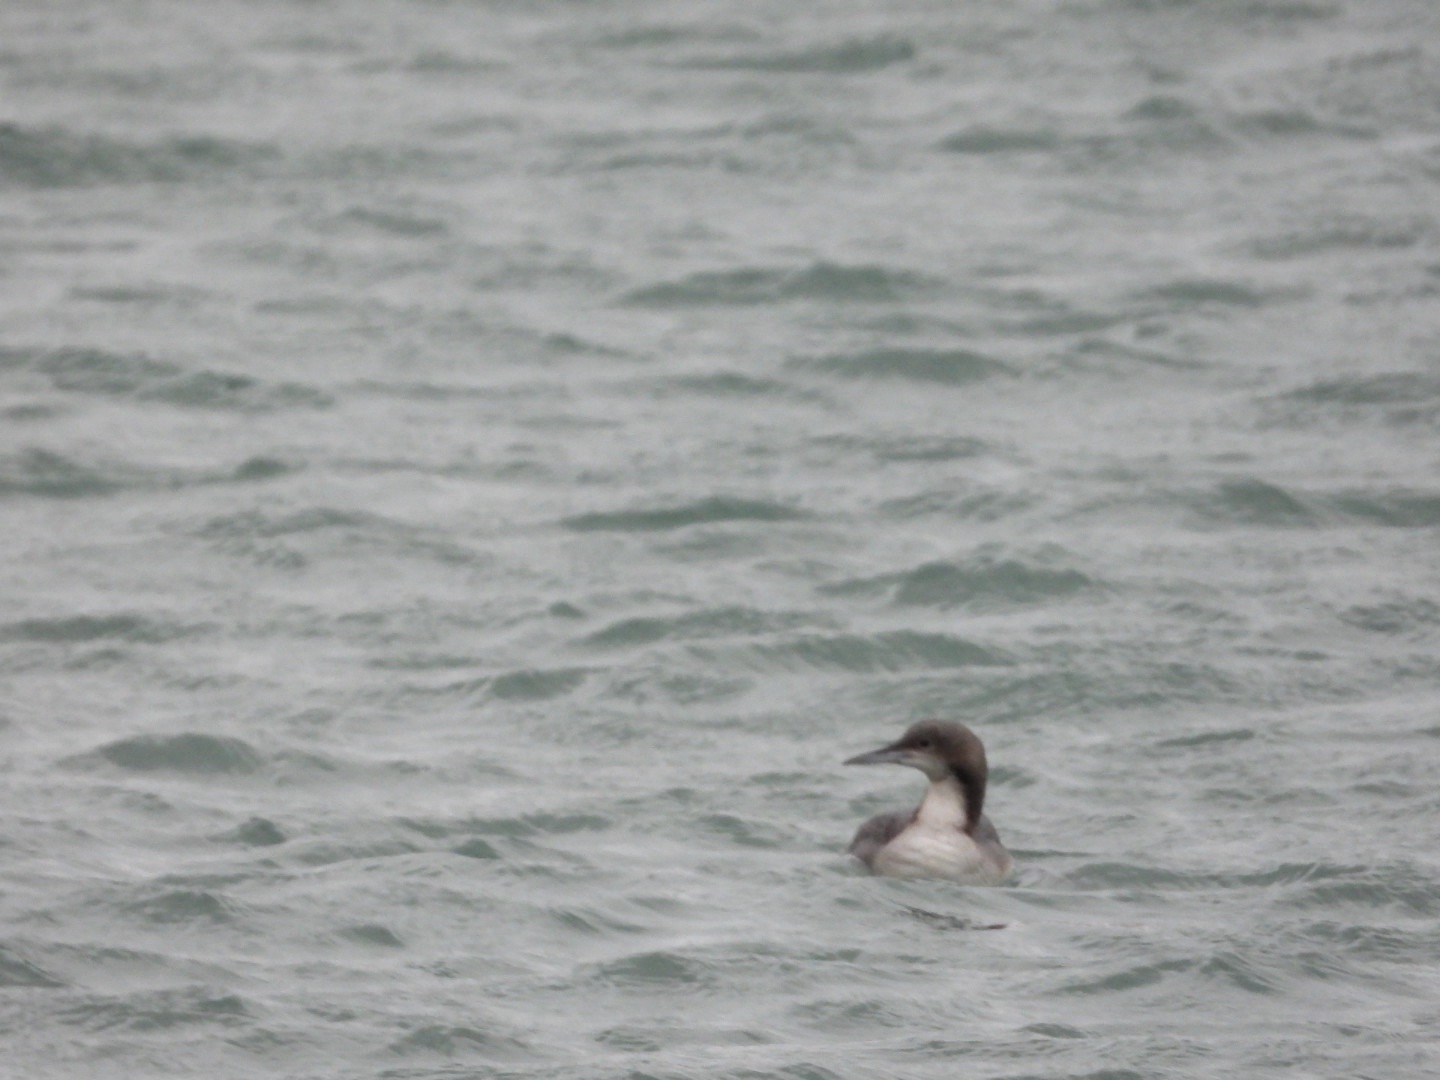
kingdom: Animalia
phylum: Chordata
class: Aves
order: Gaviiformes
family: Gaviidae
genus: Gavia
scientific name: Gavia pacifica
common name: Stillehavslom
